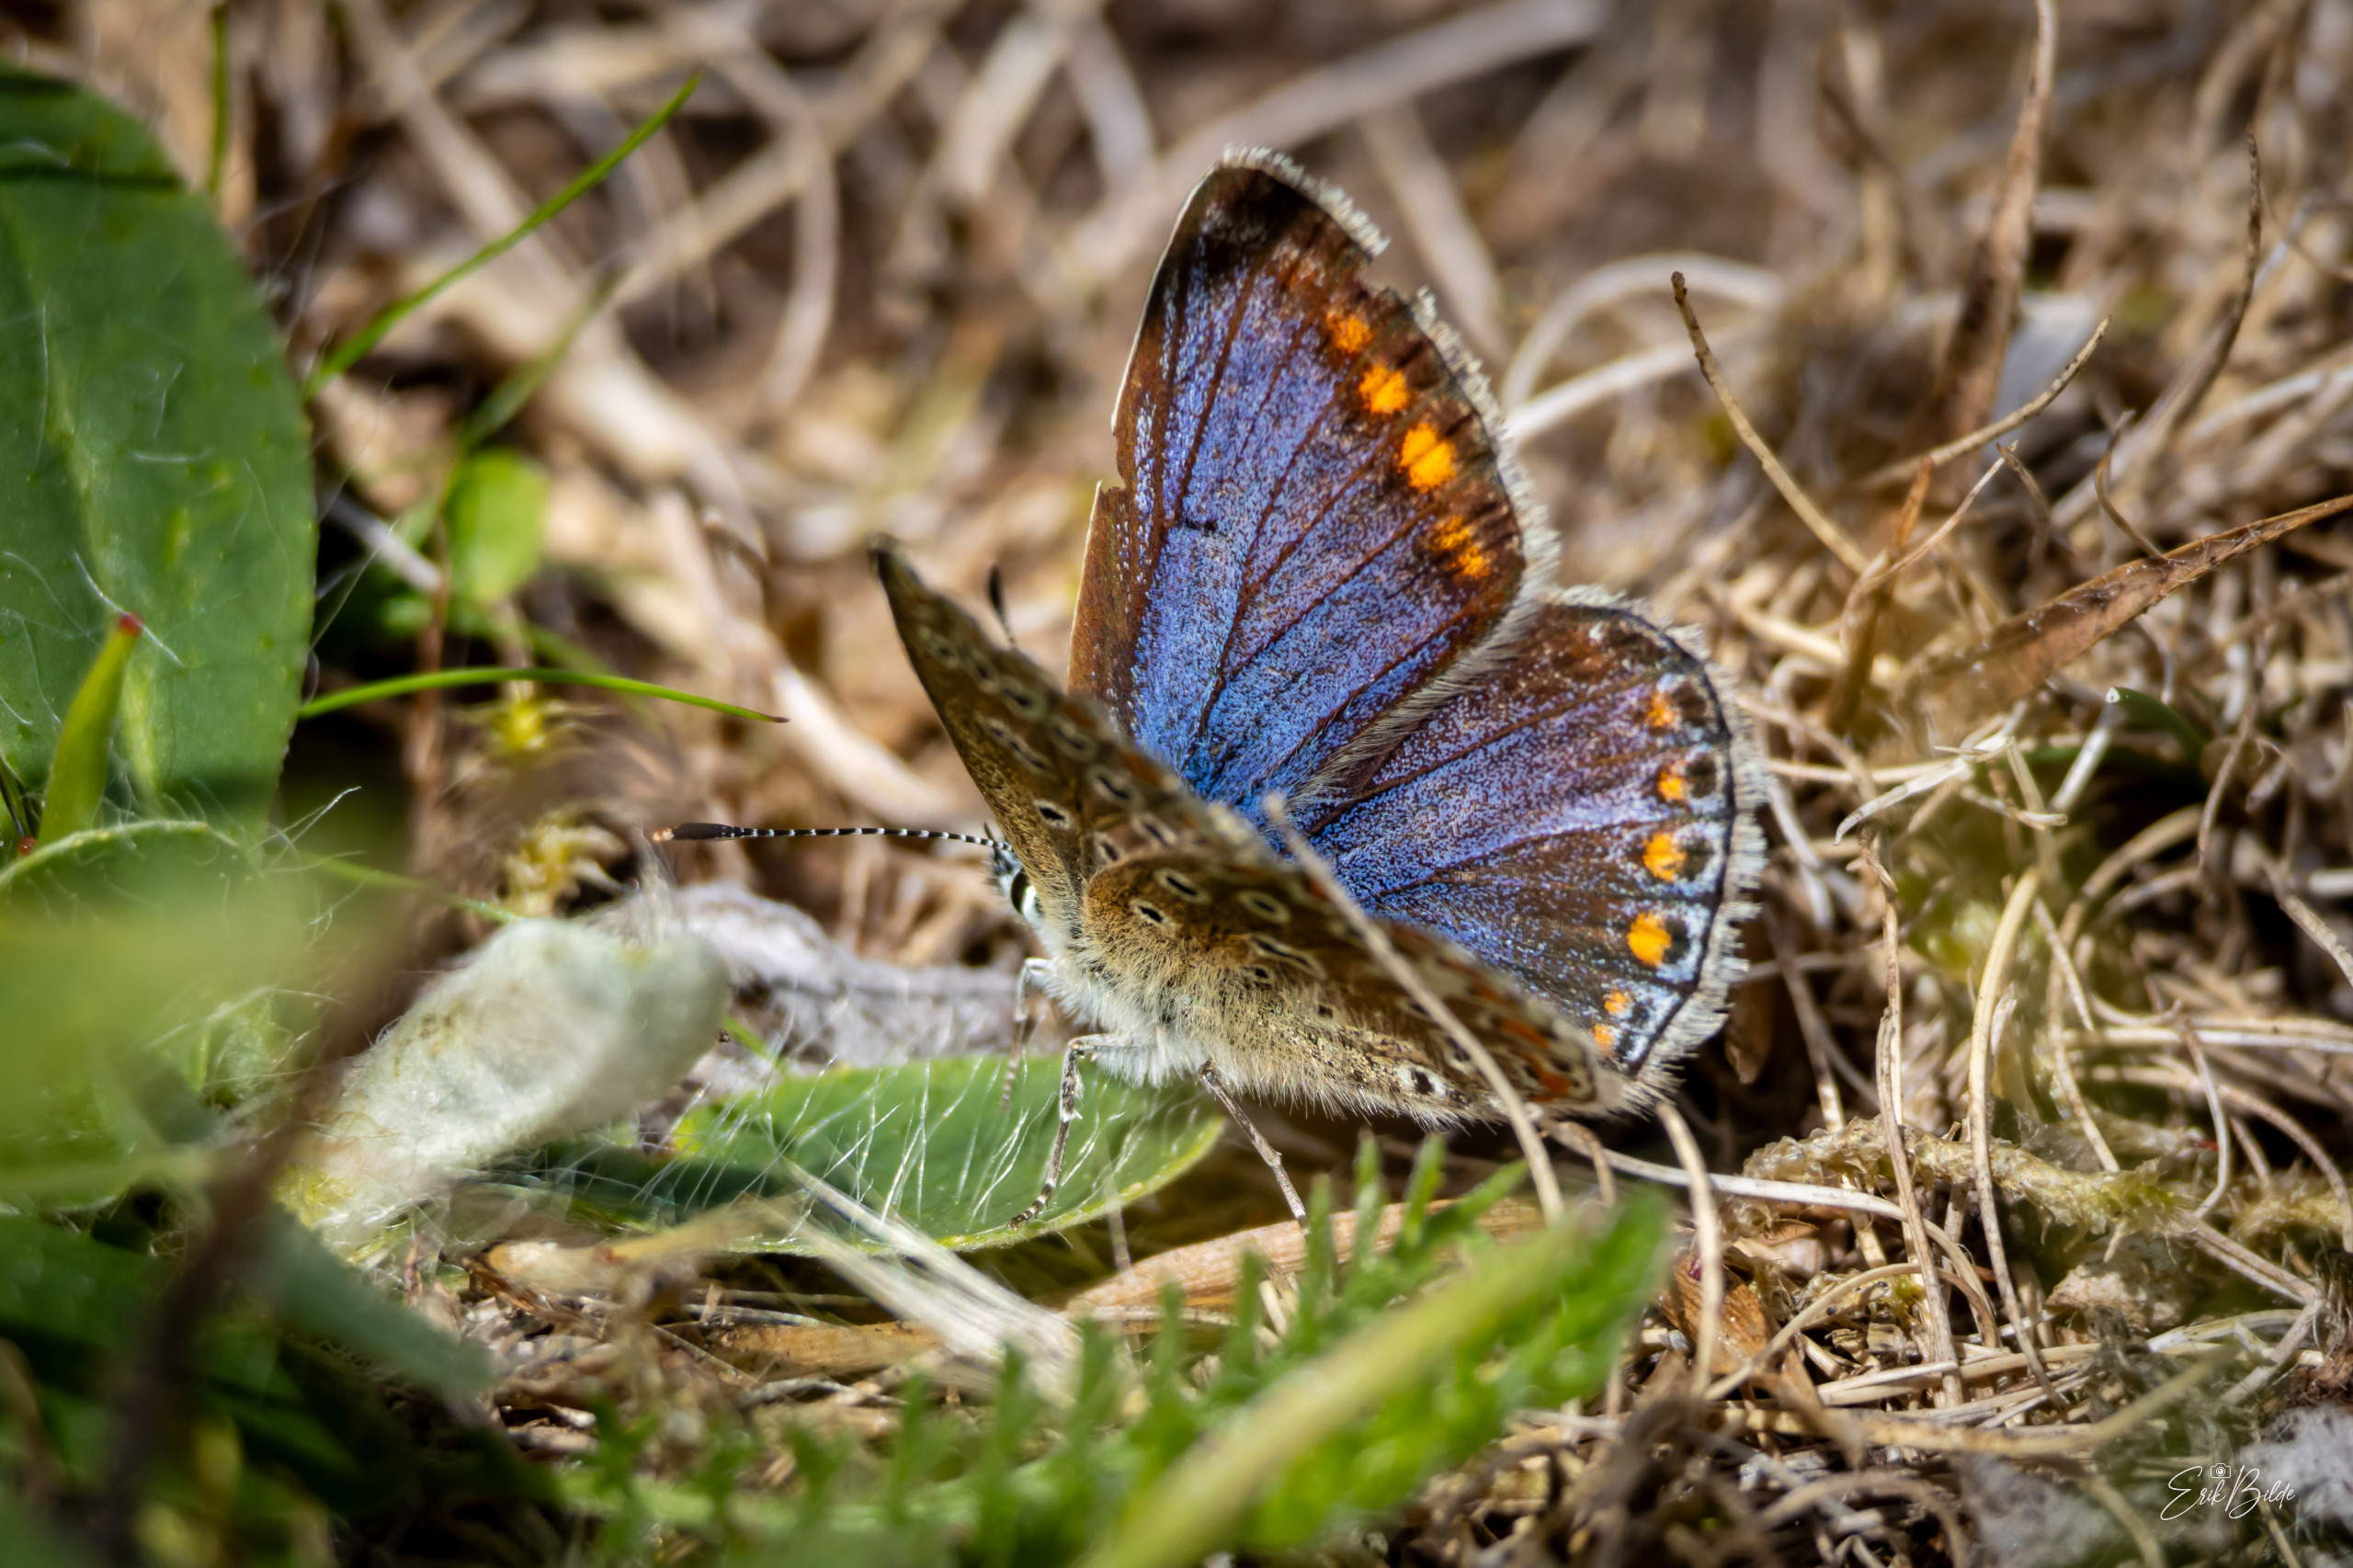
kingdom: Animalia
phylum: Arthropoda
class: Insecta
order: Lepidoptera
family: Lycaenidae
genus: Polyommatus
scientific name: Polyommatus icarus
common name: Almindelig blåfugl
